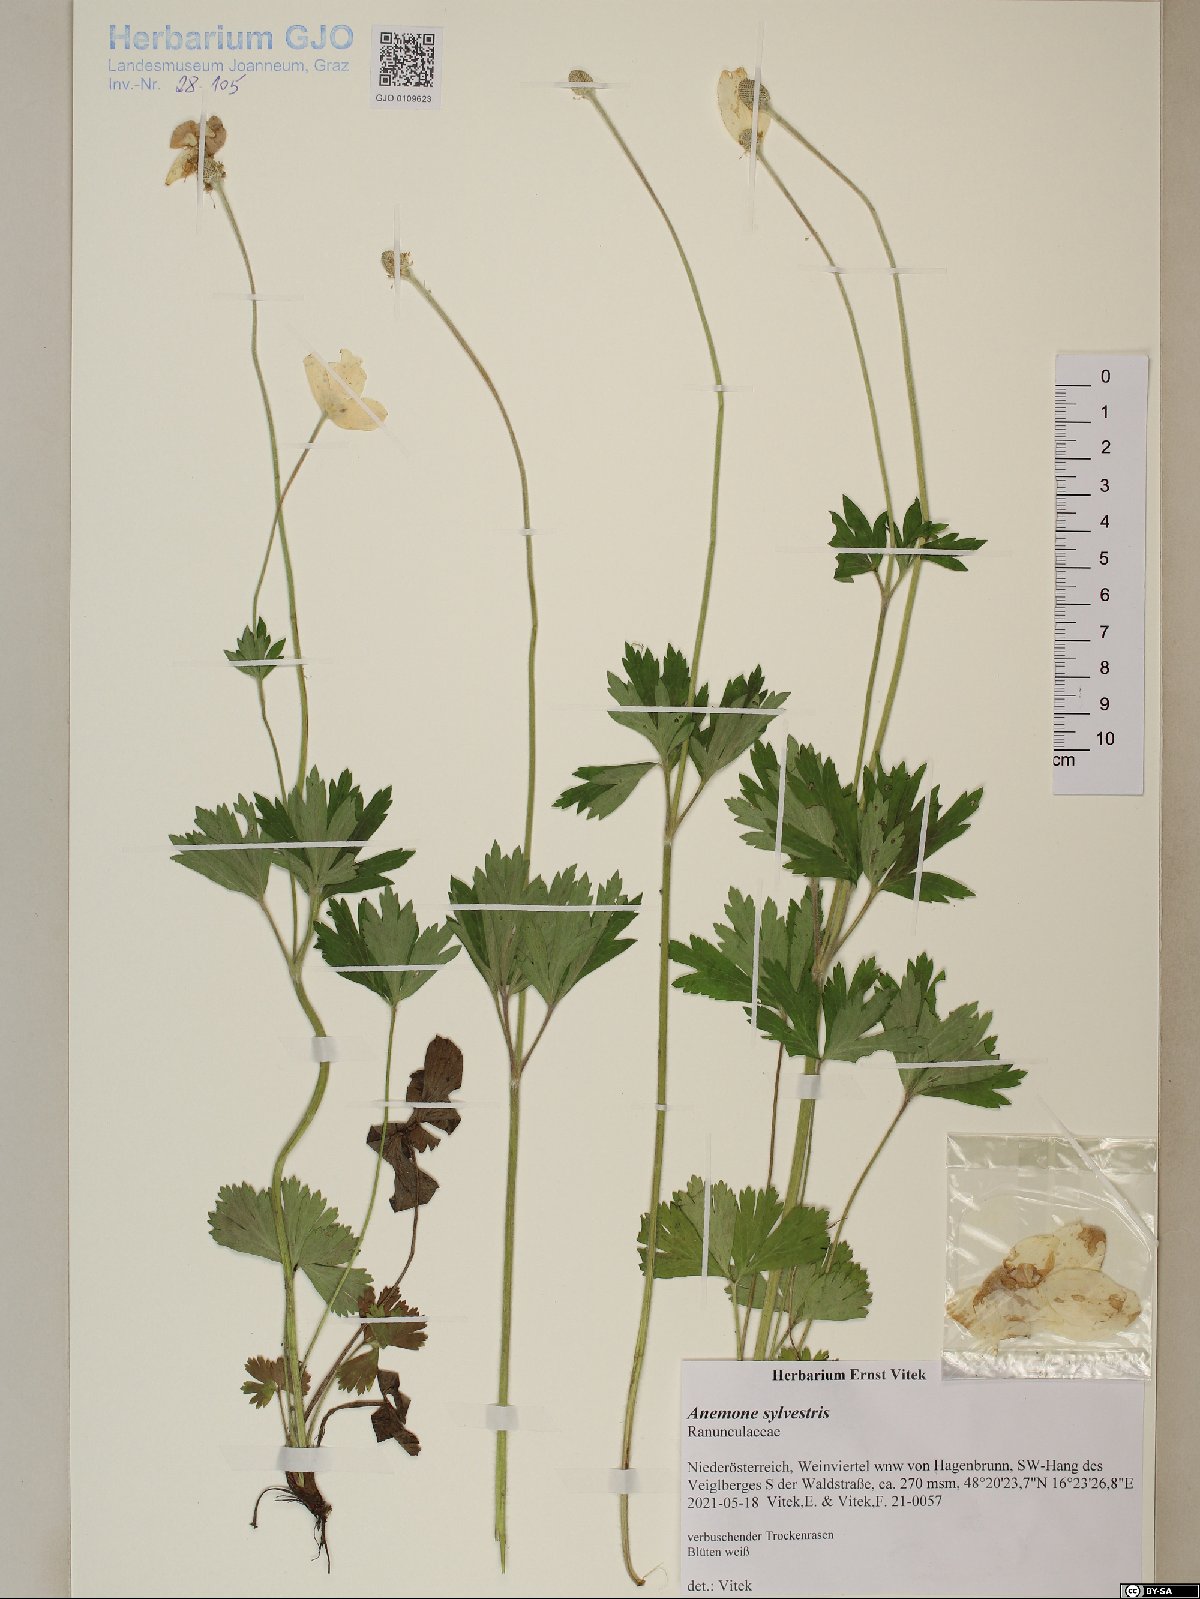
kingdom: Plantae
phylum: Tracheophyta
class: Magnoliopsida
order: Ranunculales
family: Ranunculaceae
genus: Anemone
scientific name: Anemone sylvestris
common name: Snowdrop anemone
